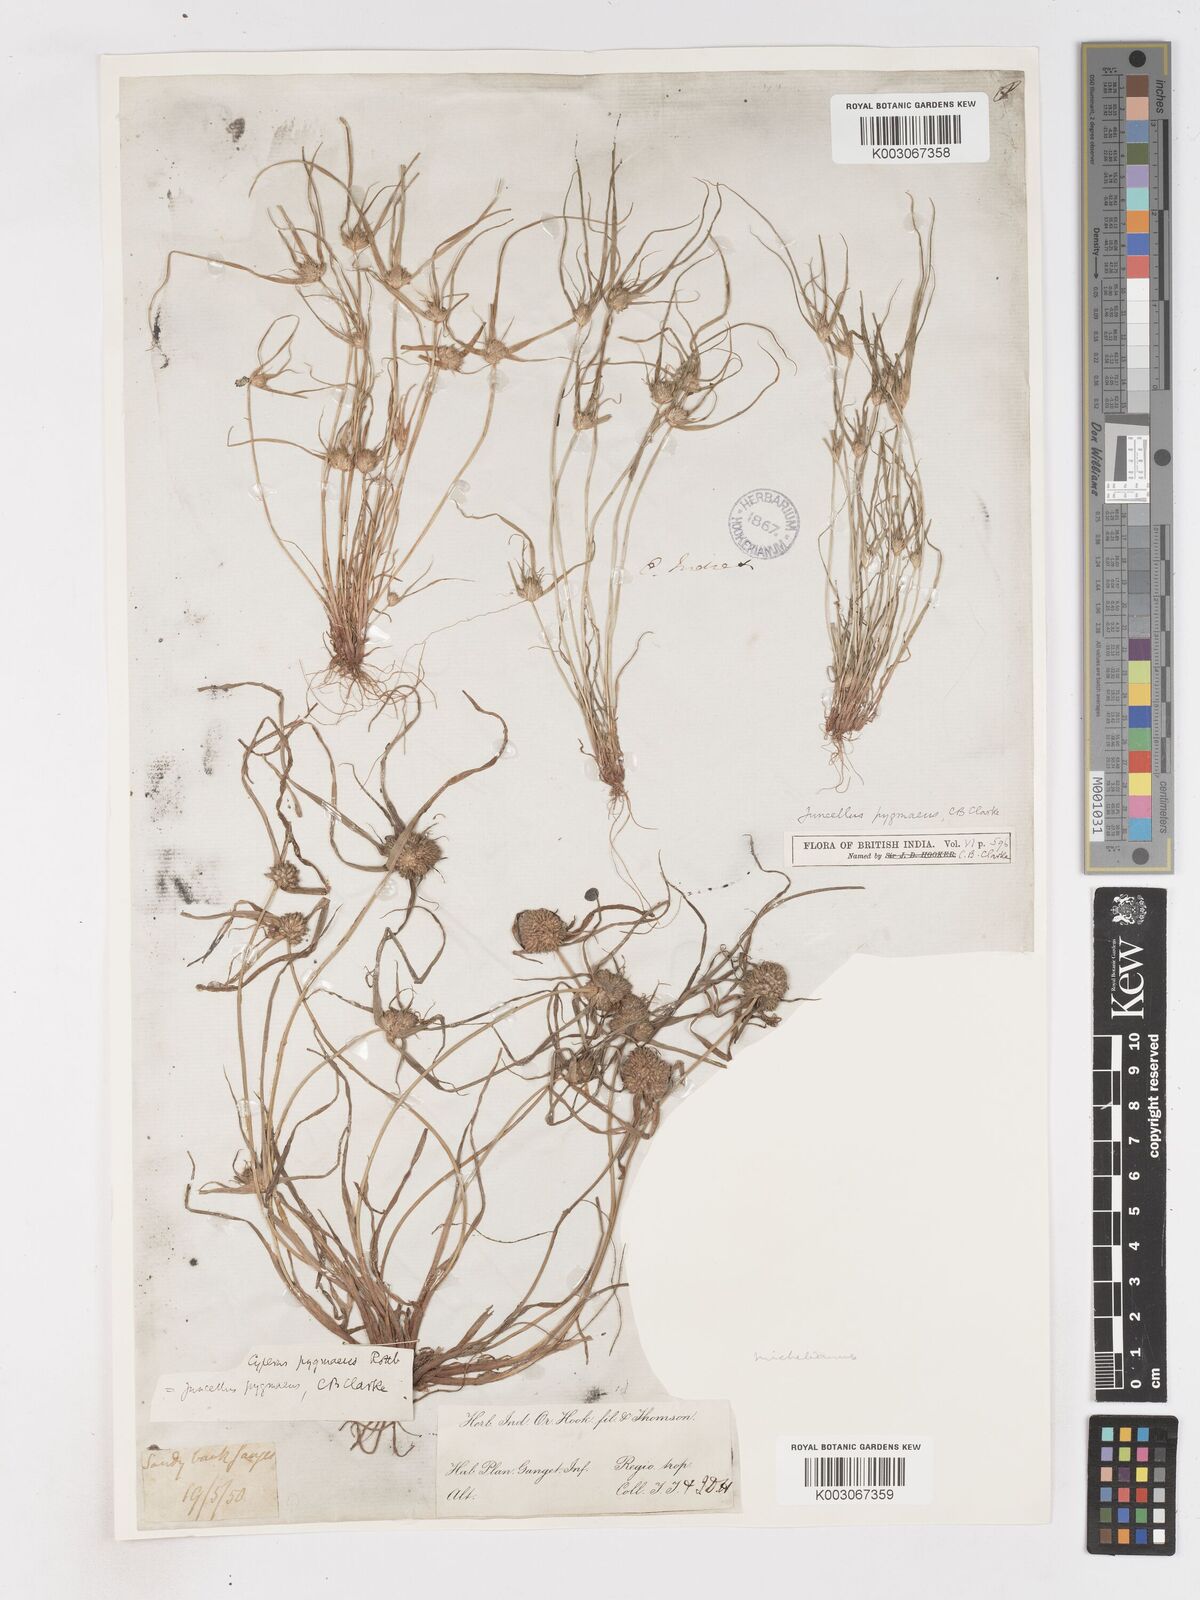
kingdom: Plantae
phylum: Tracheophyta
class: Liliopsida
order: Poales
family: Cyperaceae
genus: Cyperus
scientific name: Cyperus michelianus
